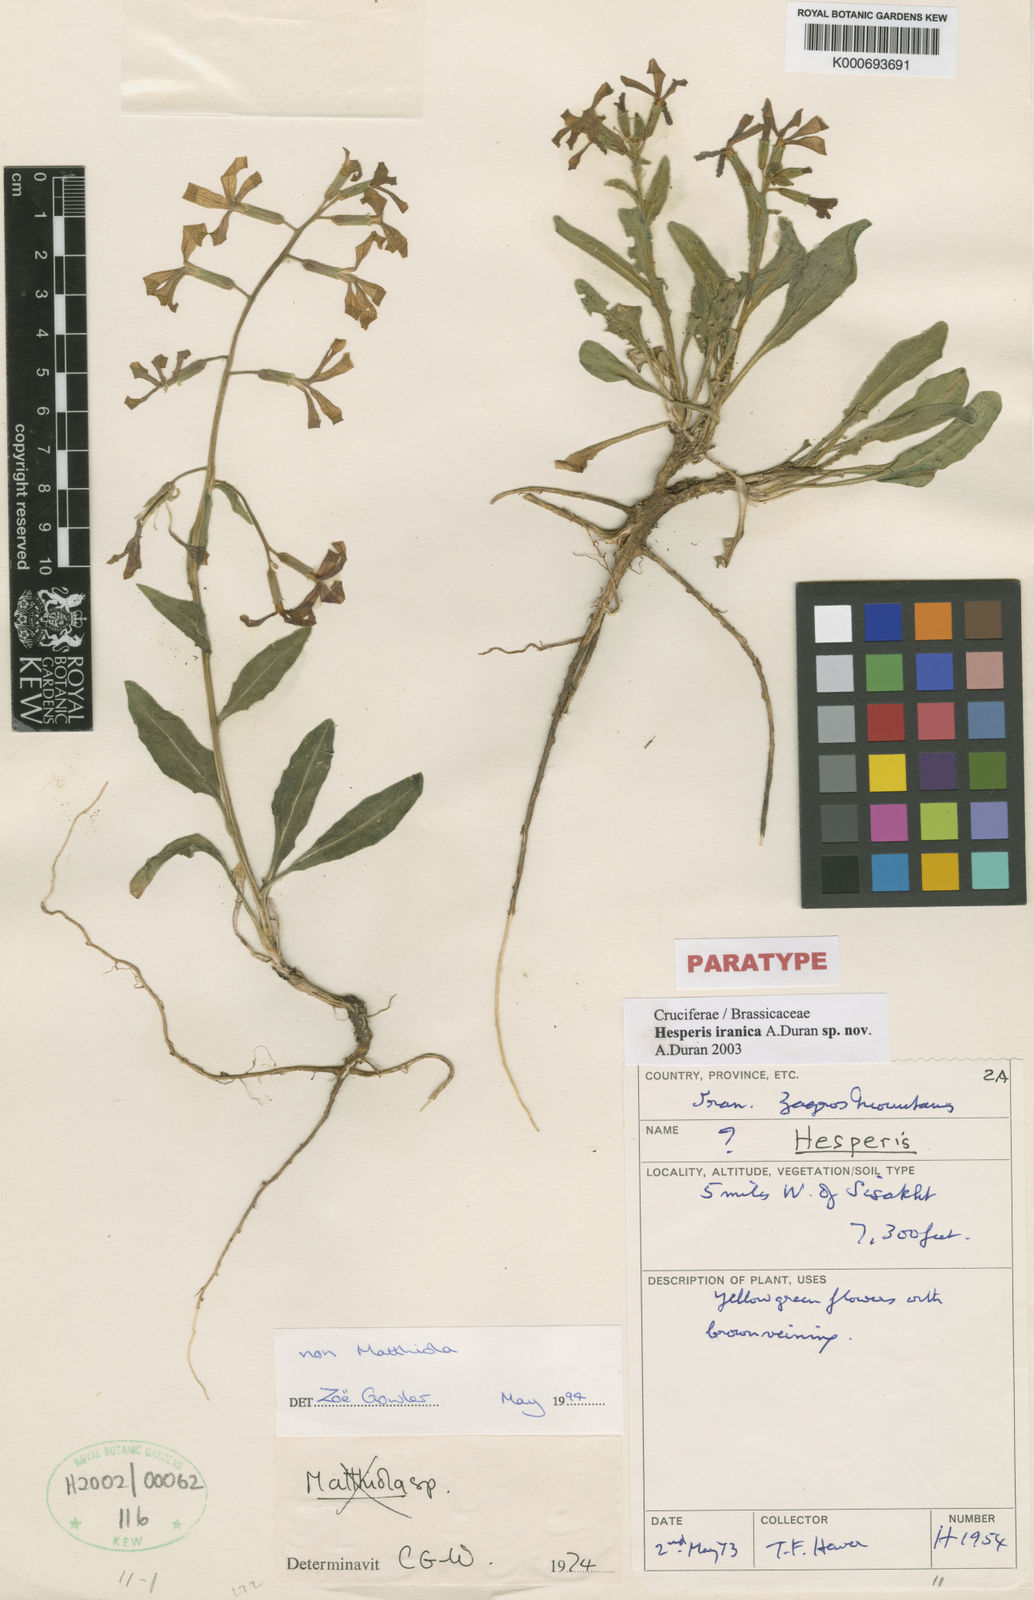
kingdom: Plantae
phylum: Tracheophyta
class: Magnoliopsida
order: Brassicales
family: Brassicaceae
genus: Hesperis
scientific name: Hesperis
